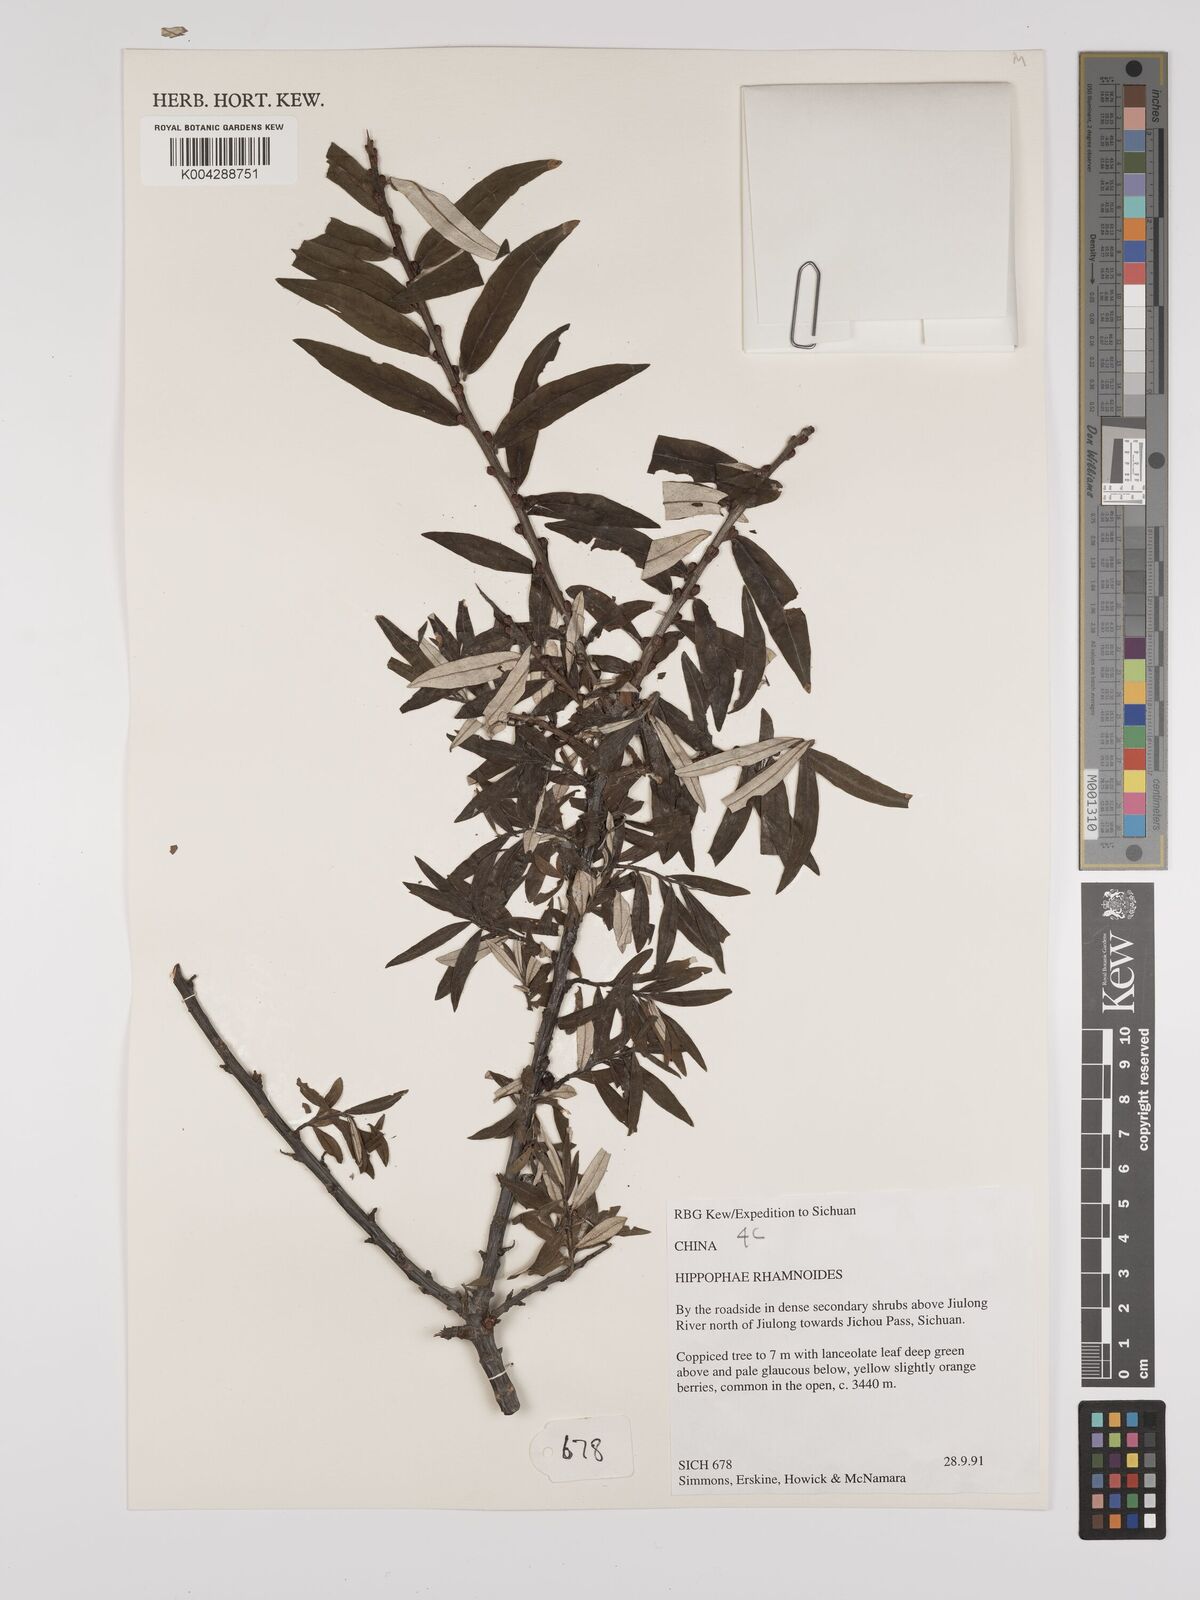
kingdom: Plantae
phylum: Tracheophyta
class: Magnoliopsida
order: Rosales
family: Elaeagnaceae
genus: Hippophae
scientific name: Hippophae rhamnoides
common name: Sea-buckthorn
